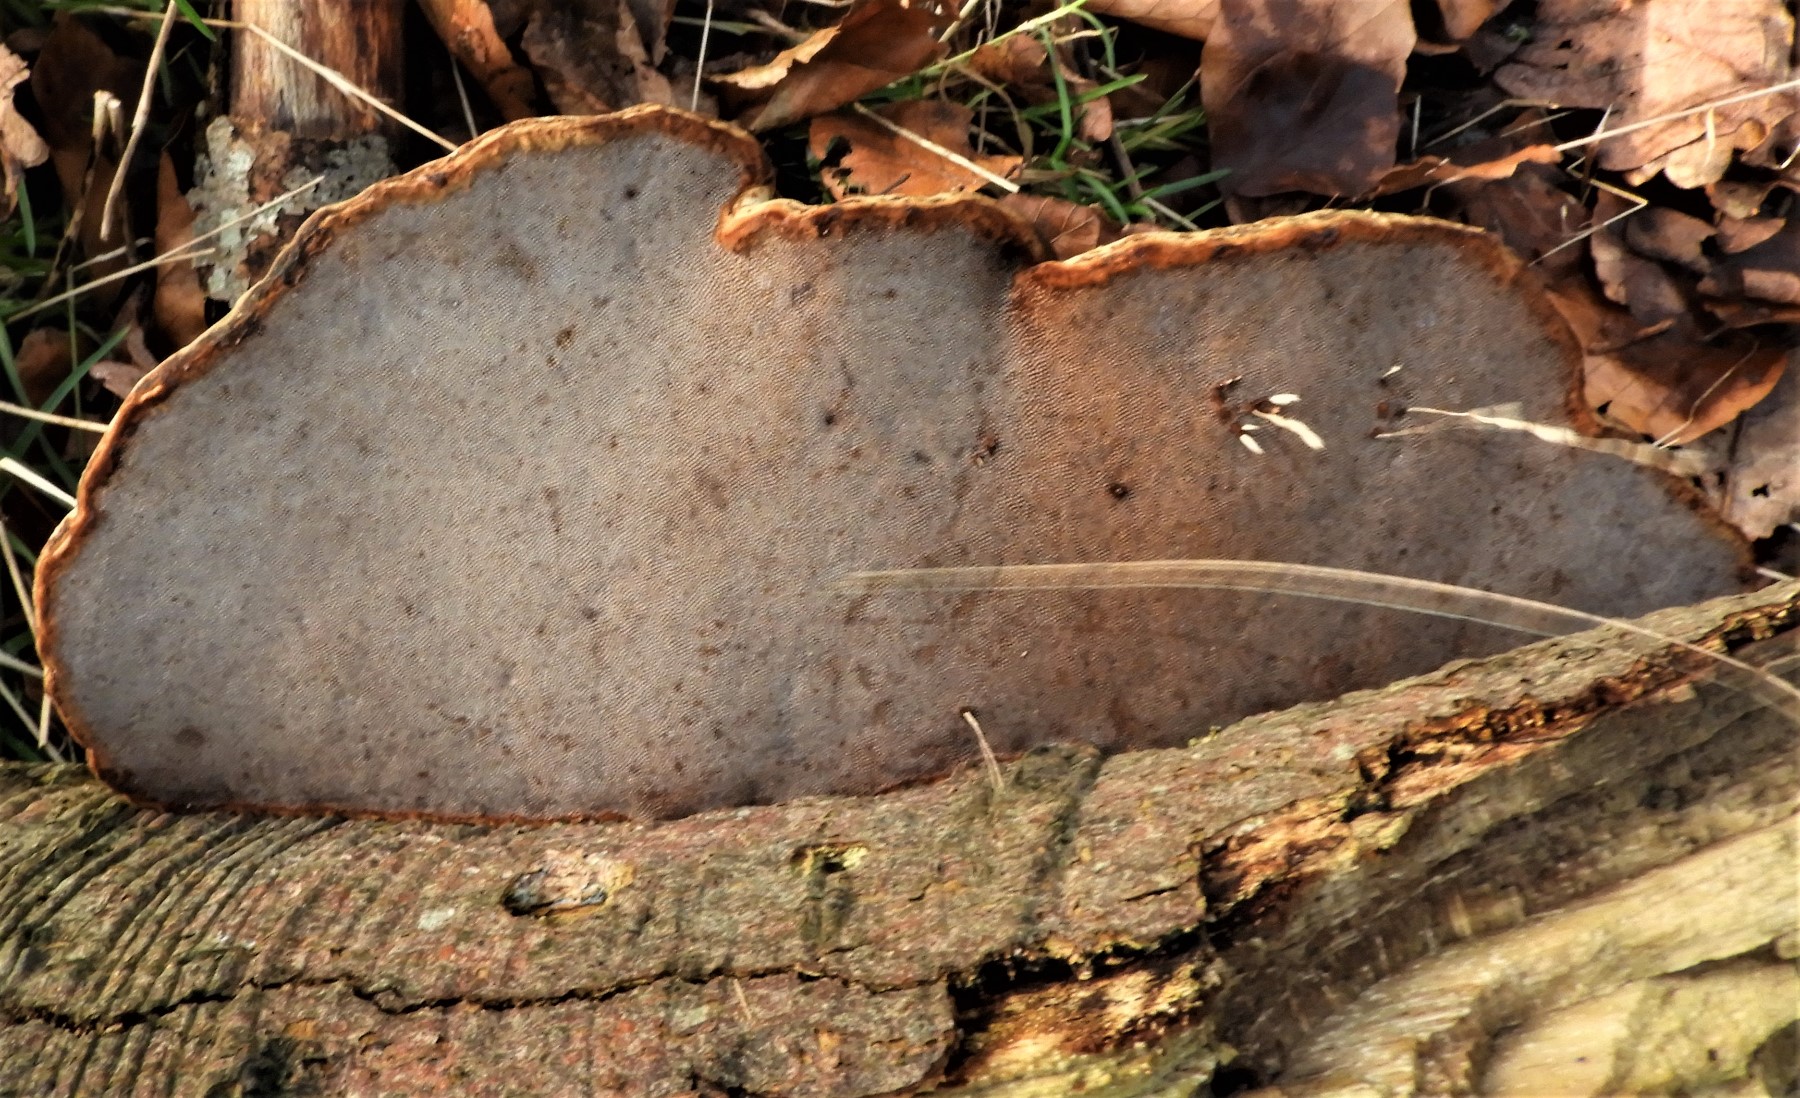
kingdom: Fungi
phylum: Basidiomycota
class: Agaricomycetes
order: Polyporales
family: Polyporaceae
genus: Fomes
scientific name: Fomes fomentarius
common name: tøndersvamp
